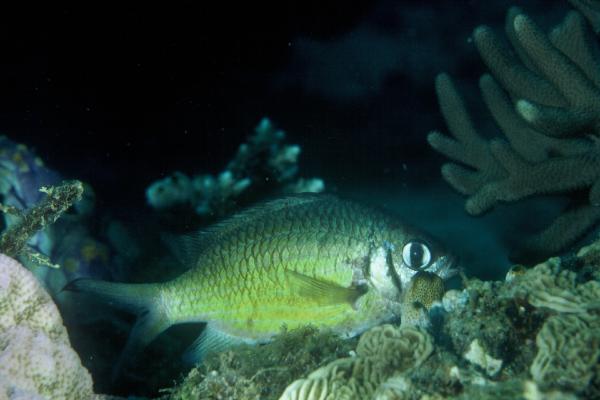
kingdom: Animalia
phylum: Chordata
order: Perciformes
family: Pomacentridae
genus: Chromis
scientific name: Chromis weberi
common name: Weber's chromis
